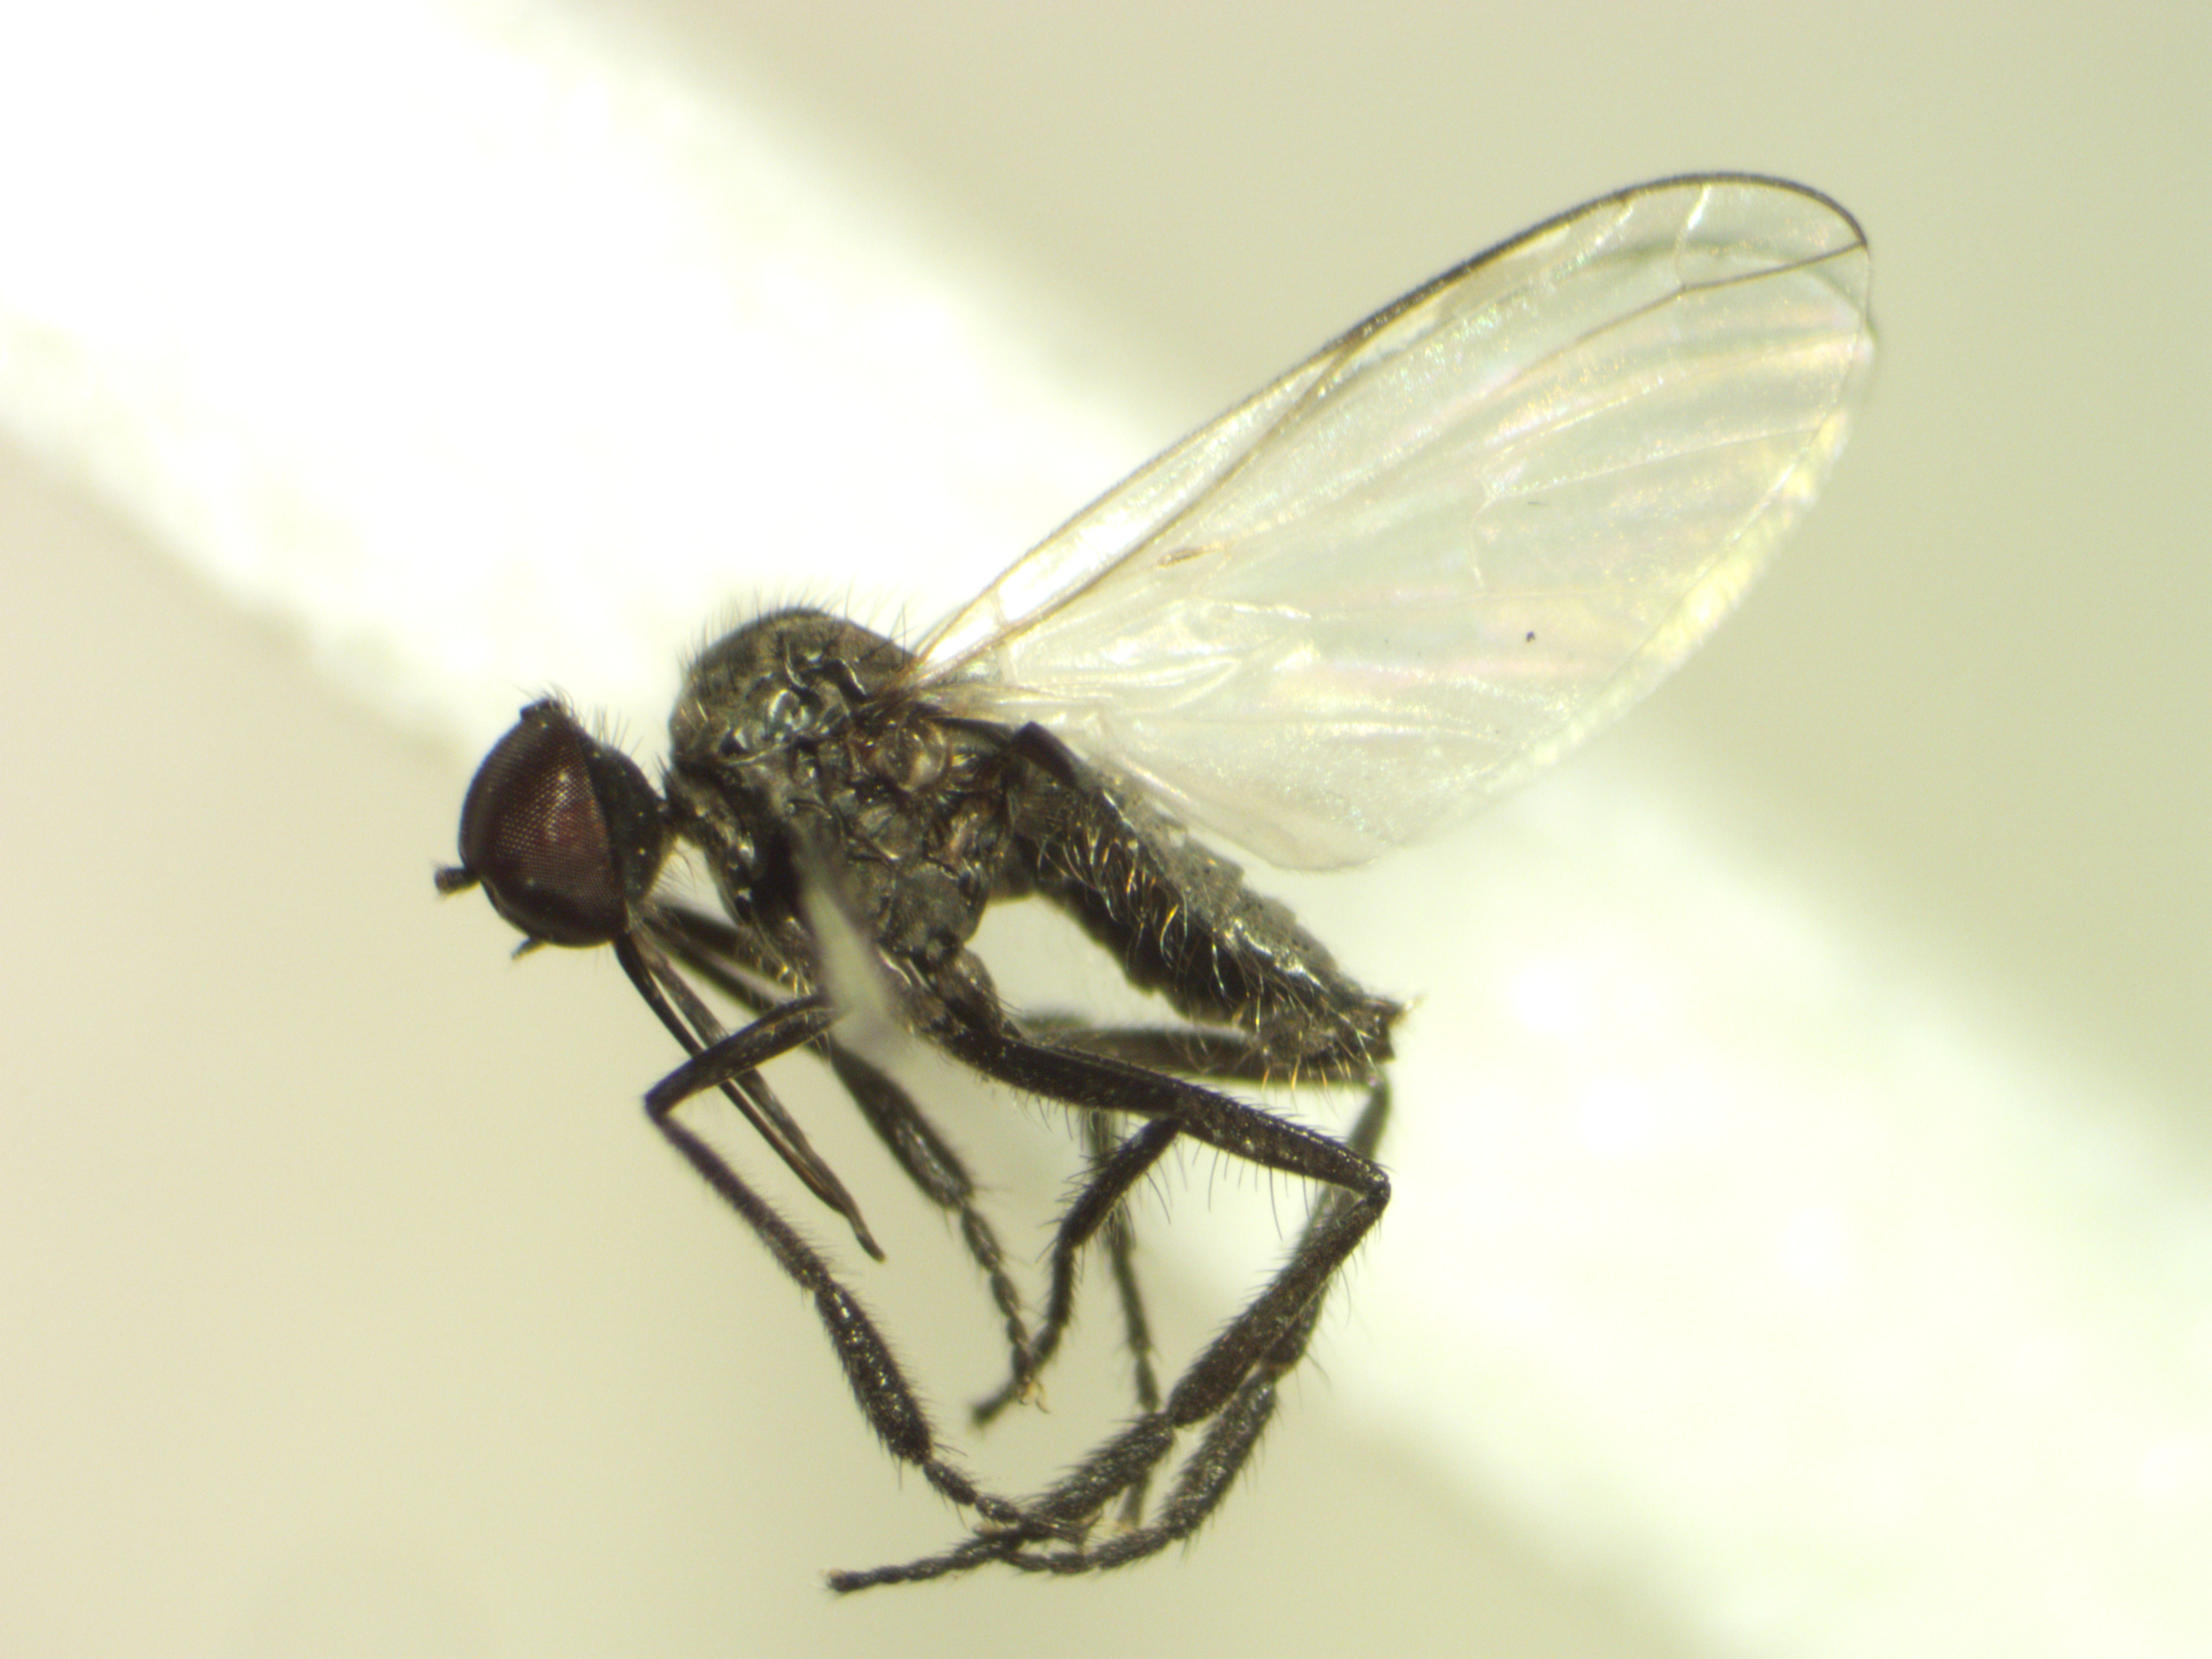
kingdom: Animalia
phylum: Arthropoda
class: Insecta
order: Diptera
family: Empididae
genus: Empis
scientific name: Empis chioptera
